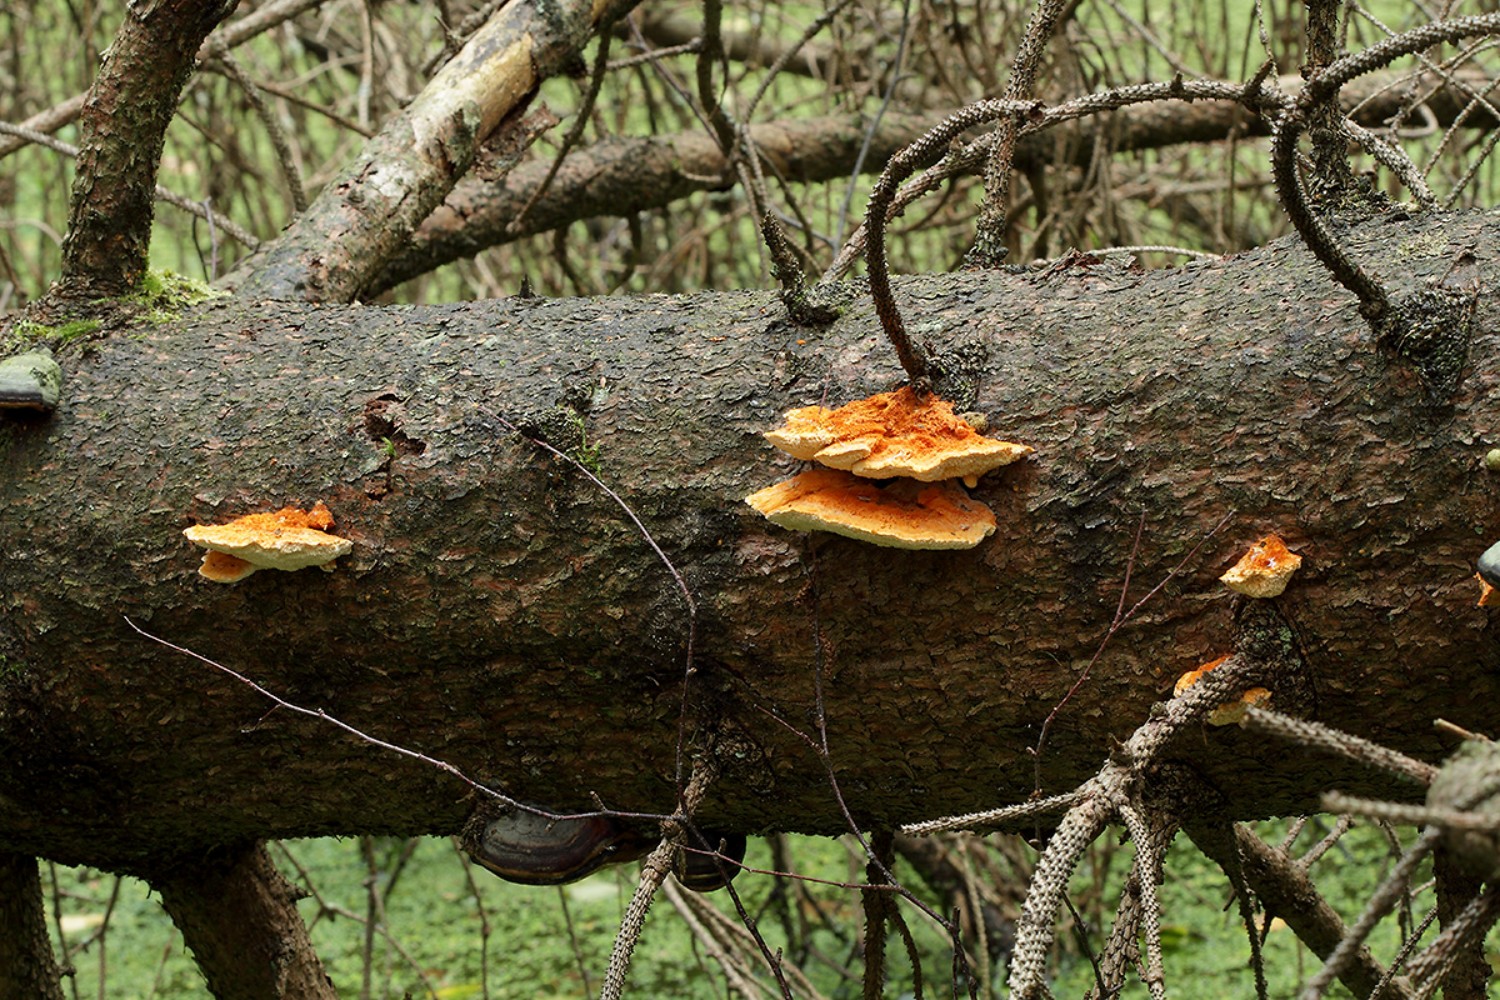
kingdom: Fungi
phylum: Basidiomycota
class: Agaricomycetes
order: Polyporales
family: Pycnoporellaceae
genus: Pycnoporellus
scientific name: Pycnoporellus fulgens
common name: flammeporesvamp
